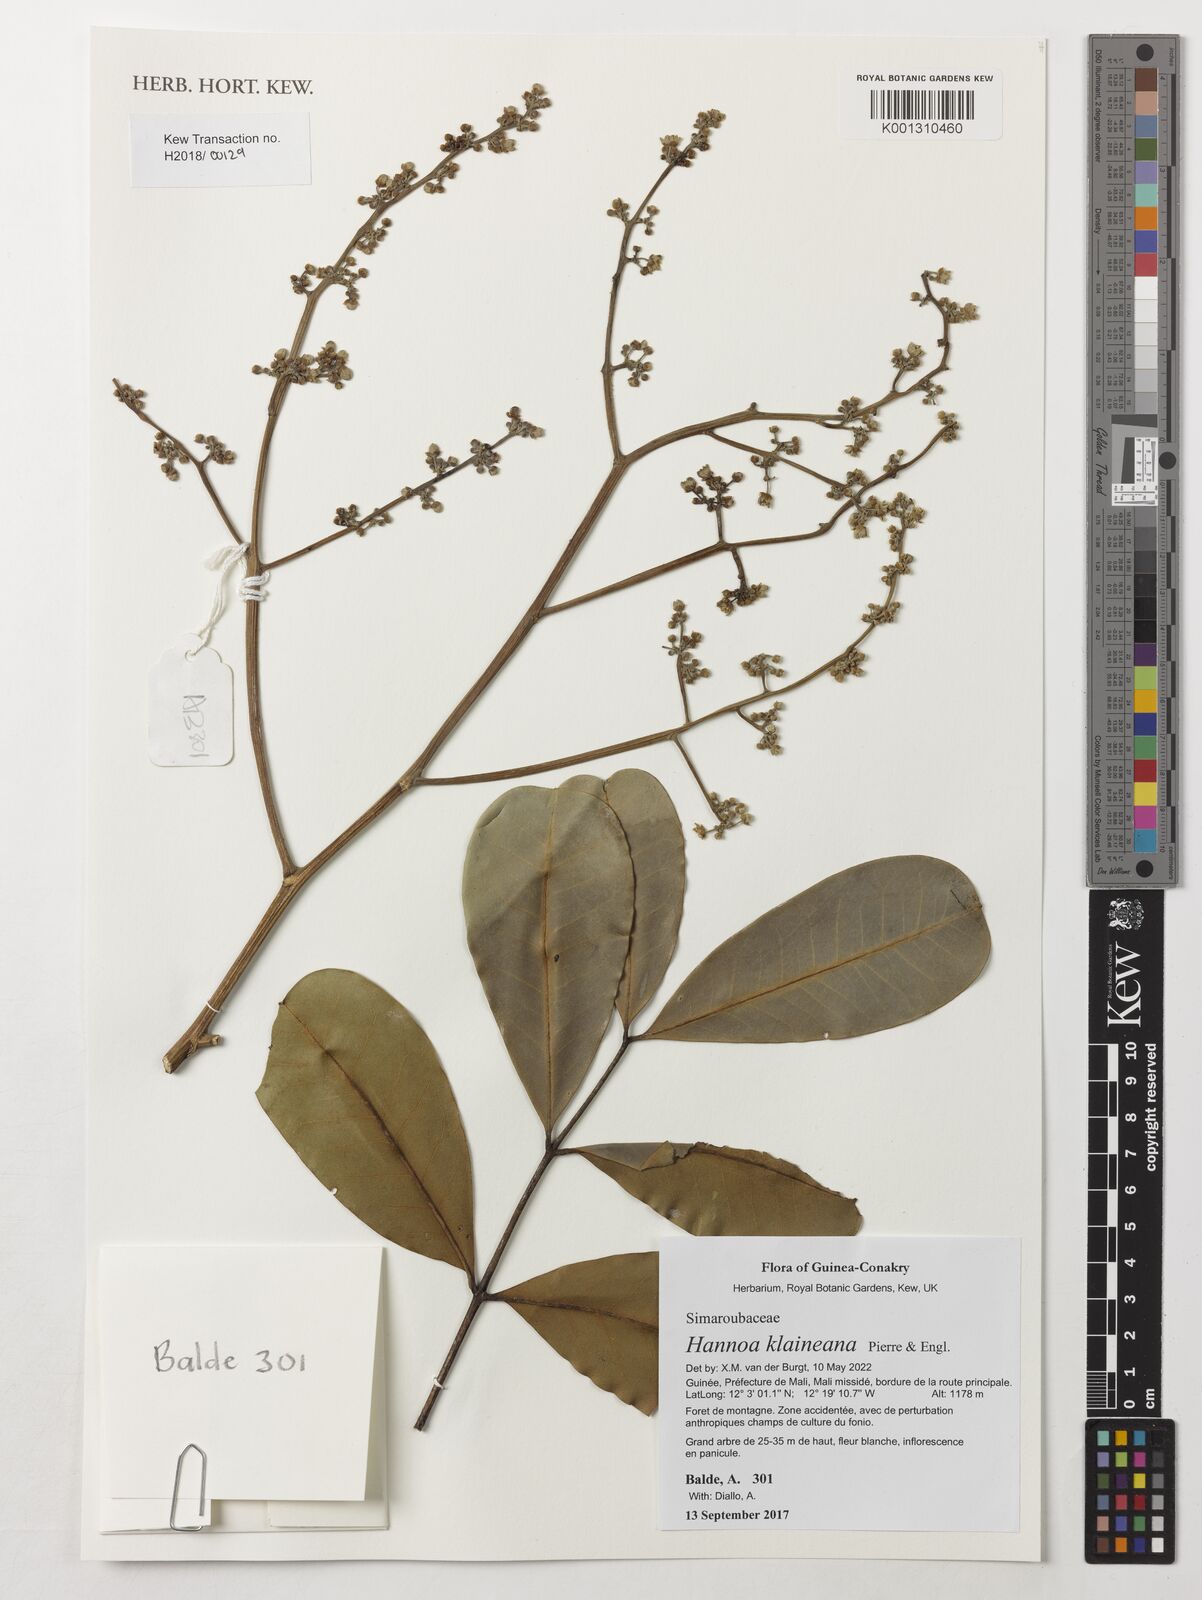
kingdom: Plantae
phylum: Tracheophyta
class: Magnoliopsida
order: Sapindales
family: Simaroubaceae
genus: Odyendyea
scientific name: Odyendyea klaineana
